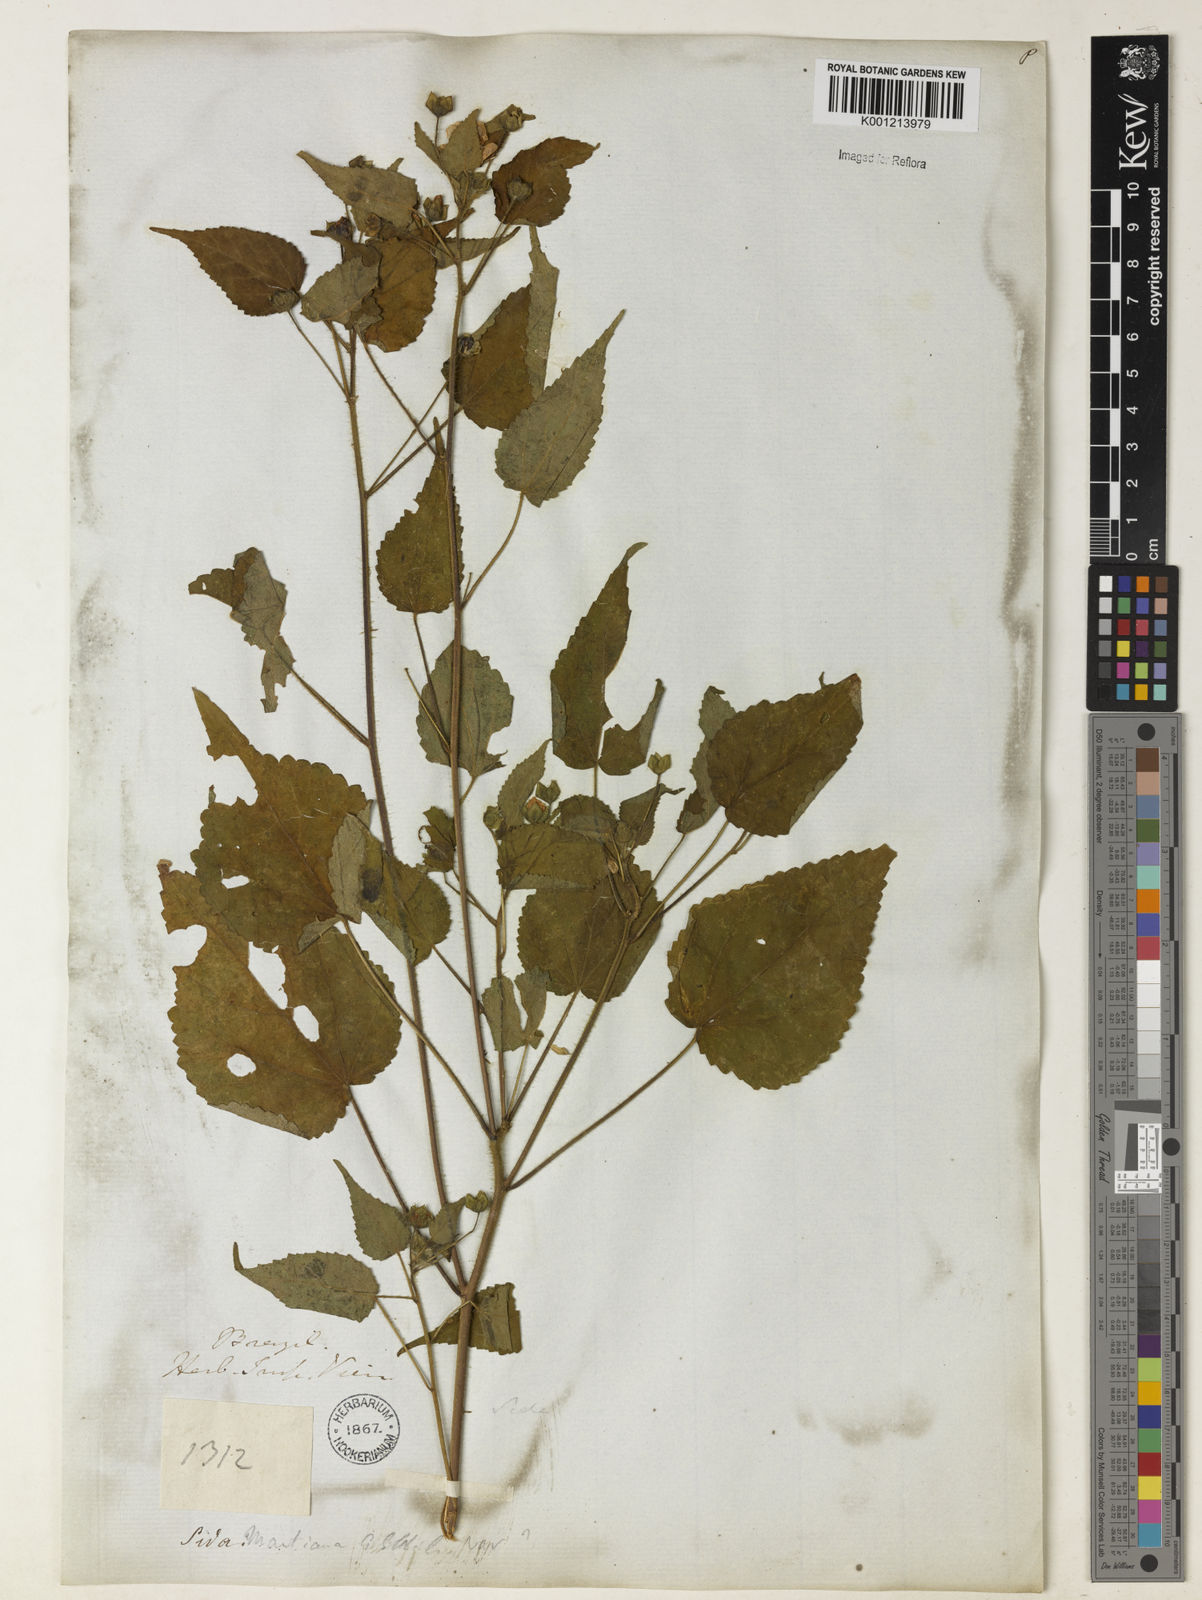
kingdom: Plantae
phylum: Tracheophyta
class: Magnoliopsida
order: Malvales
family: Malvaceae
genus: Sida
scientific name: Sida aurantiaca
